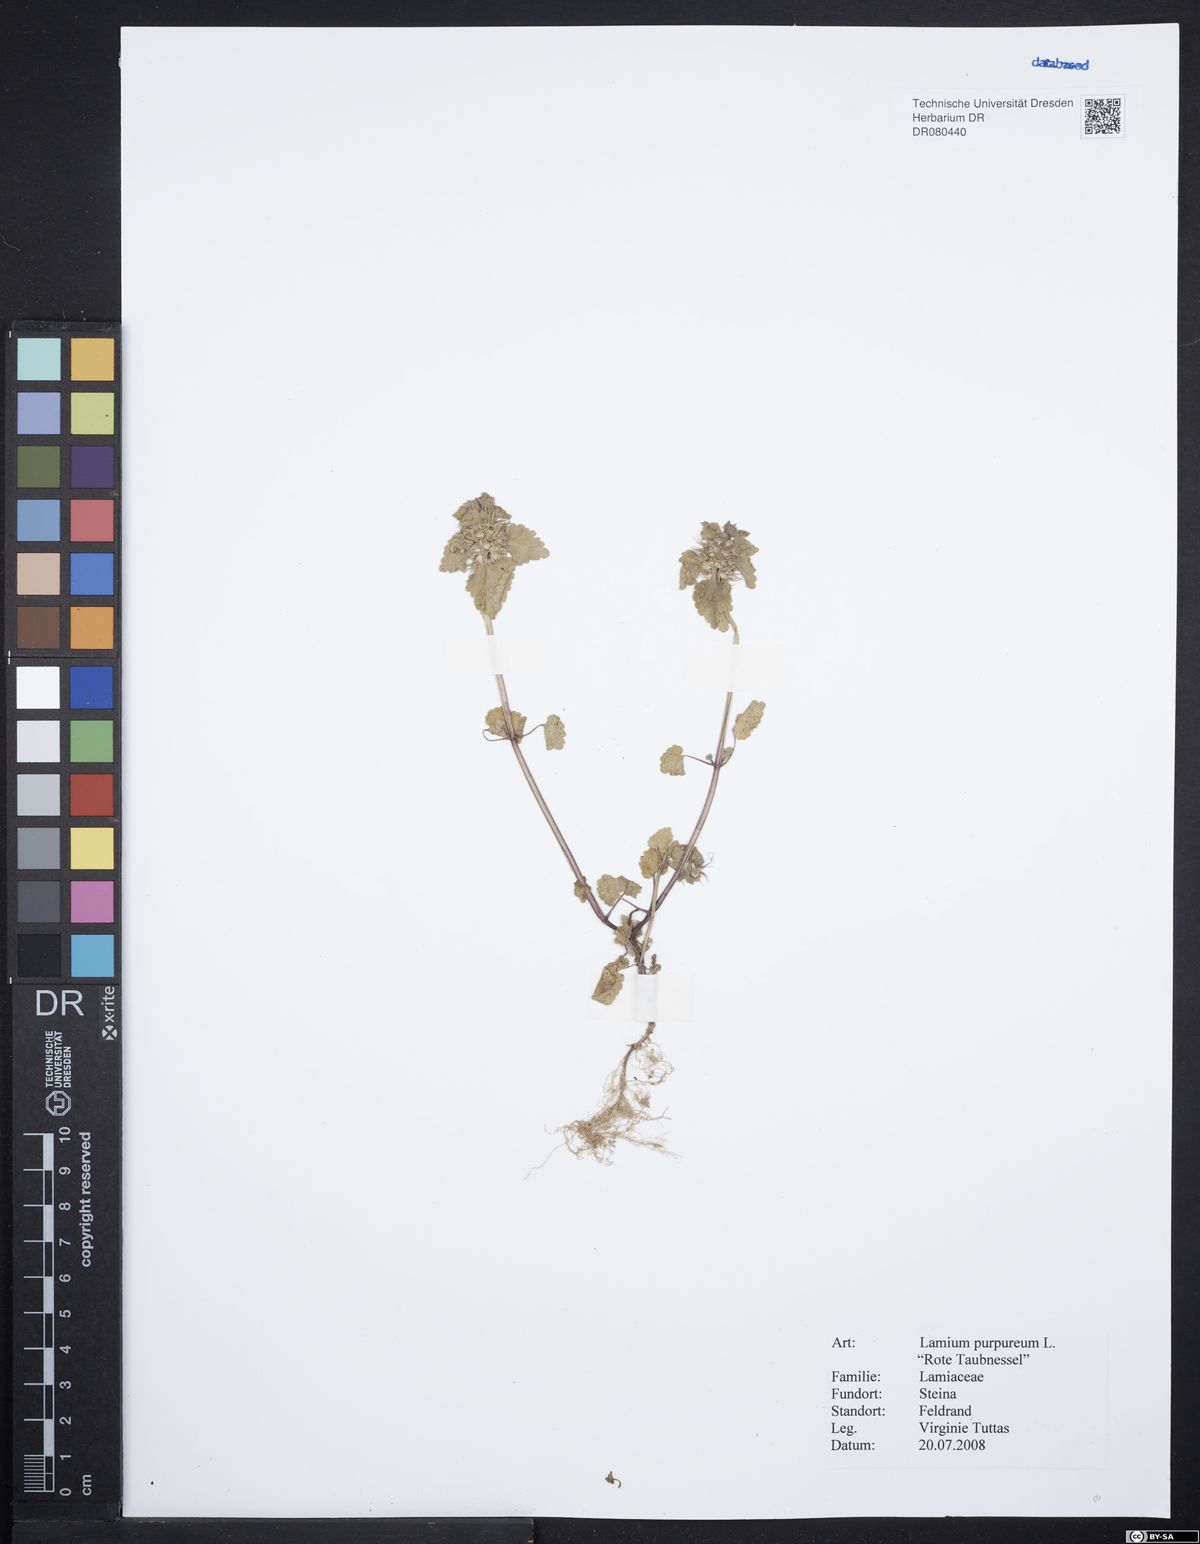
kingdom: Plantae
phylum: Tracheophyta
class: Magnoliopsida
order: Lamiales
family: Lamiaceae
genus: Lamium
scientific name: Lamium purpureum
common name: Red dead-nettle
